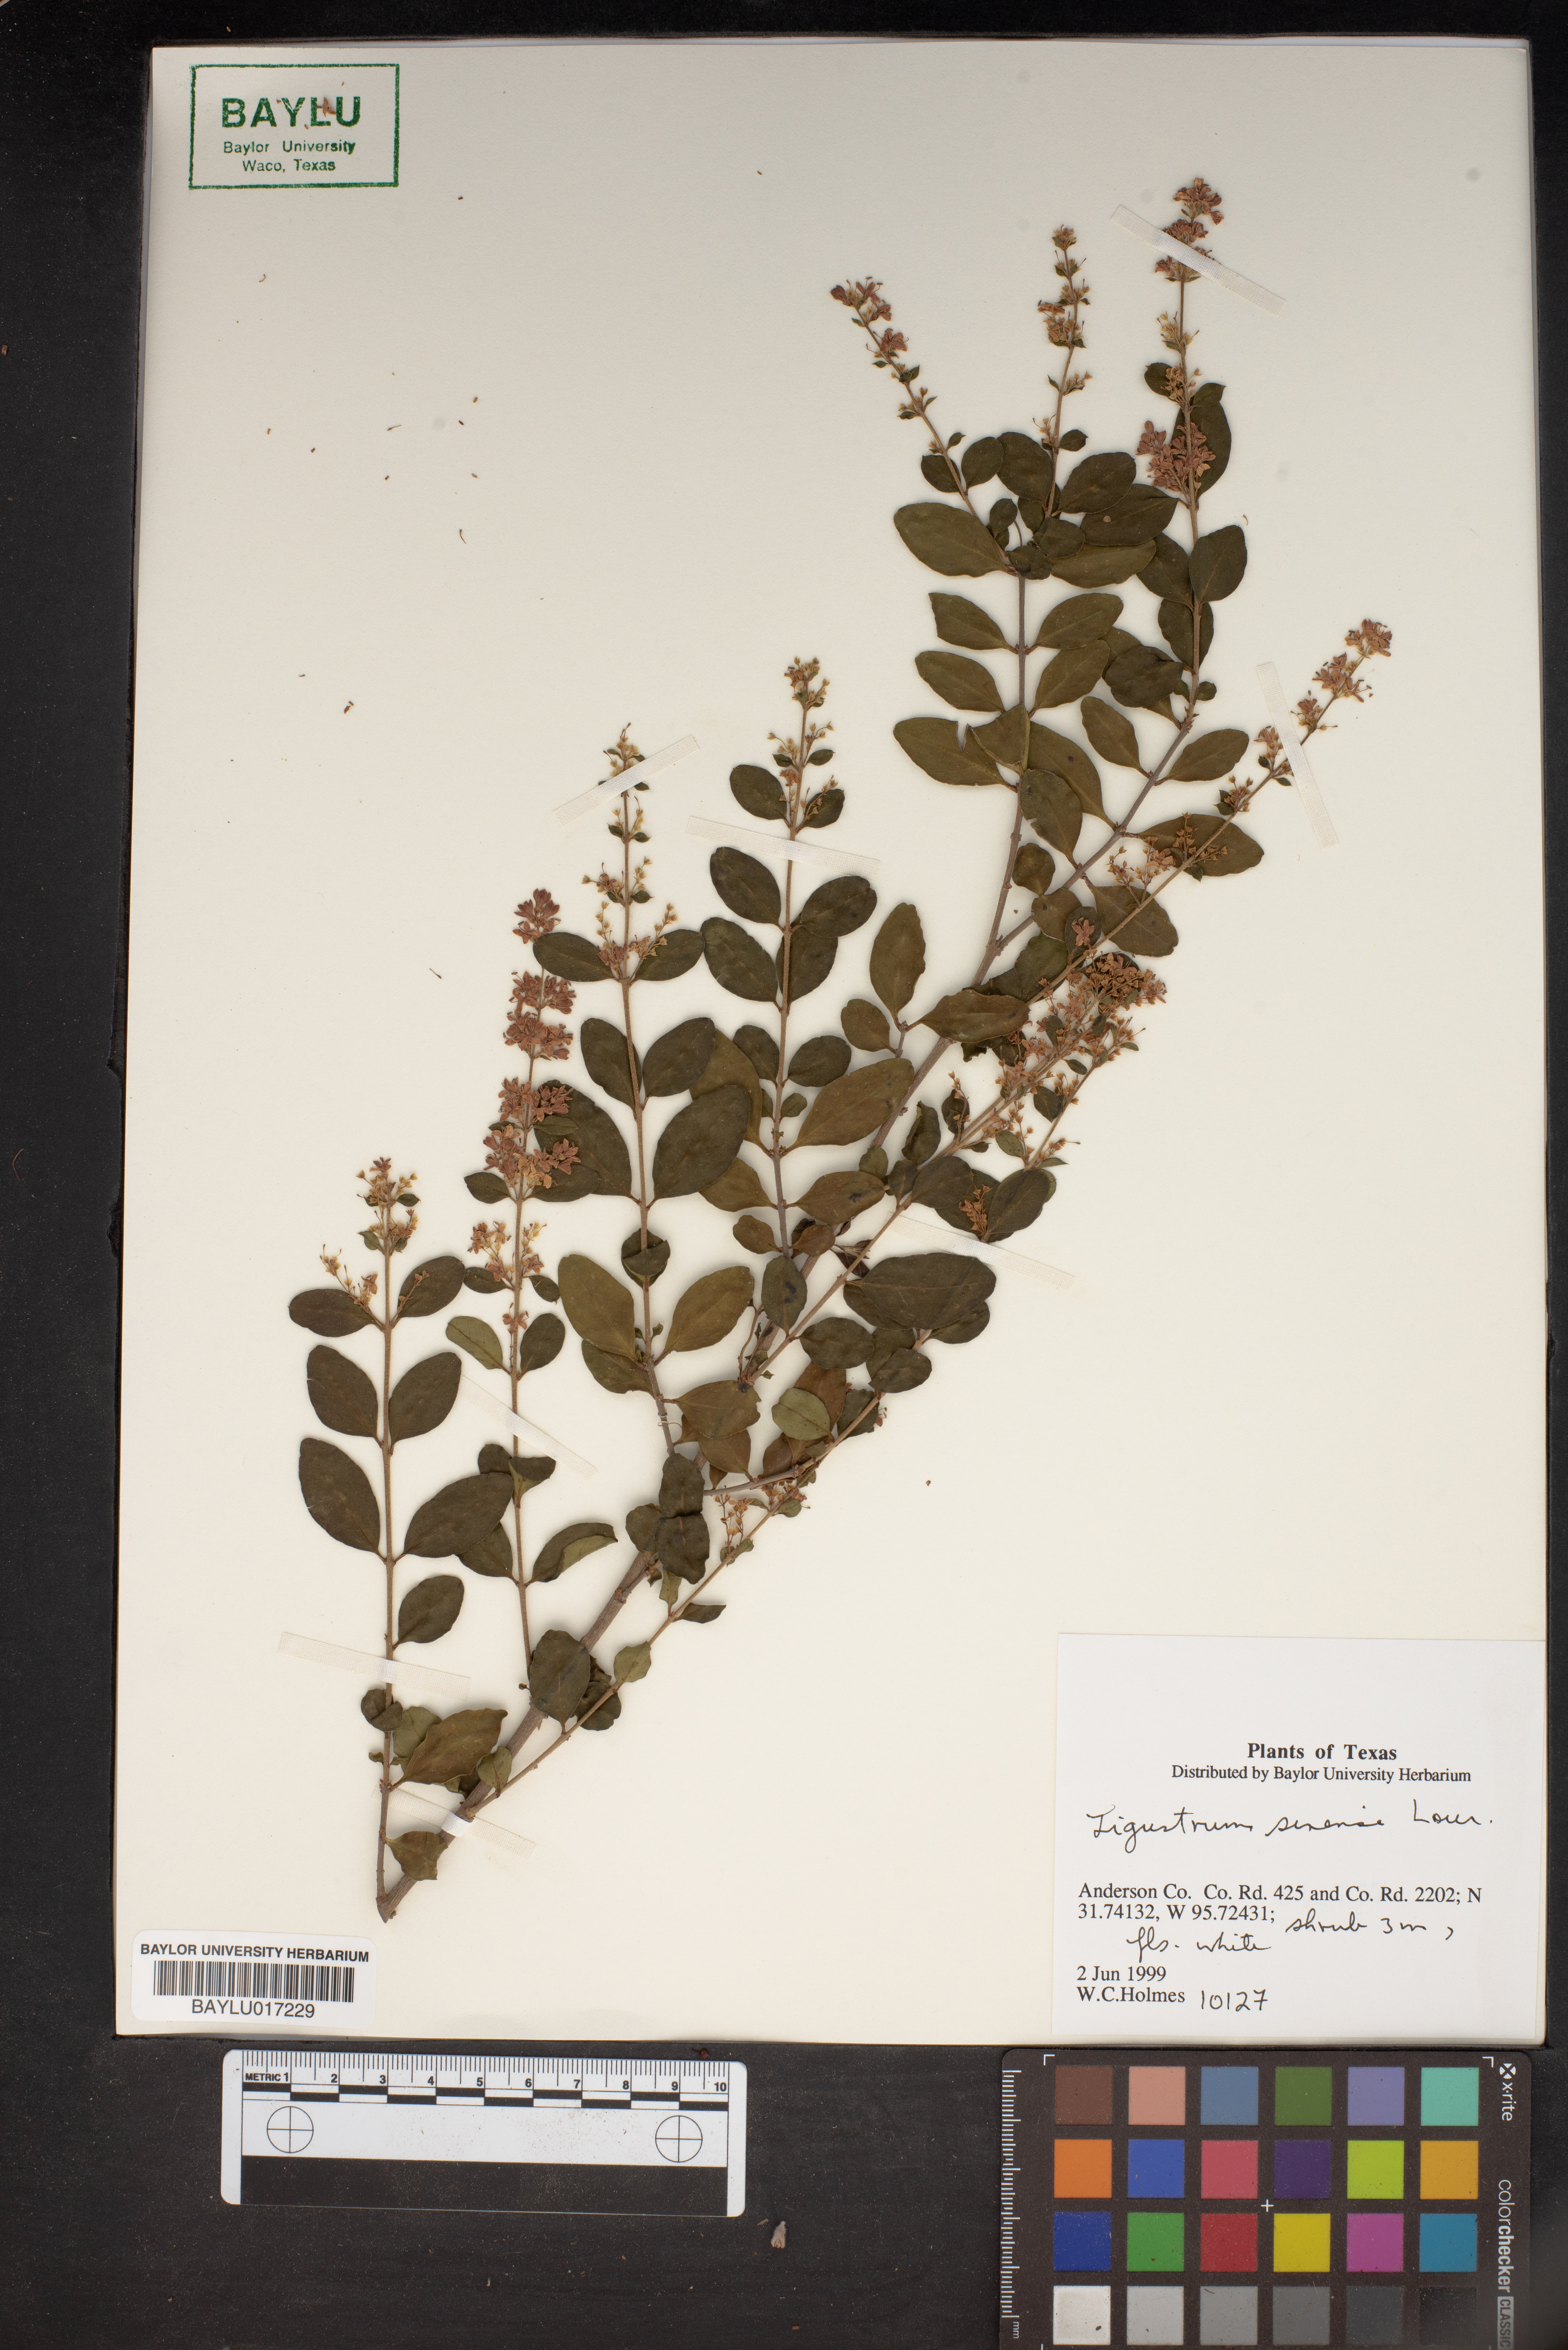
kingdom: Plantae
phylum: Tracheophyta
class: Magnoliopsida
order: Apiales
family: Apiaceae
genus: Conioselinum
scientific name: Conioselinum anthriscoides
